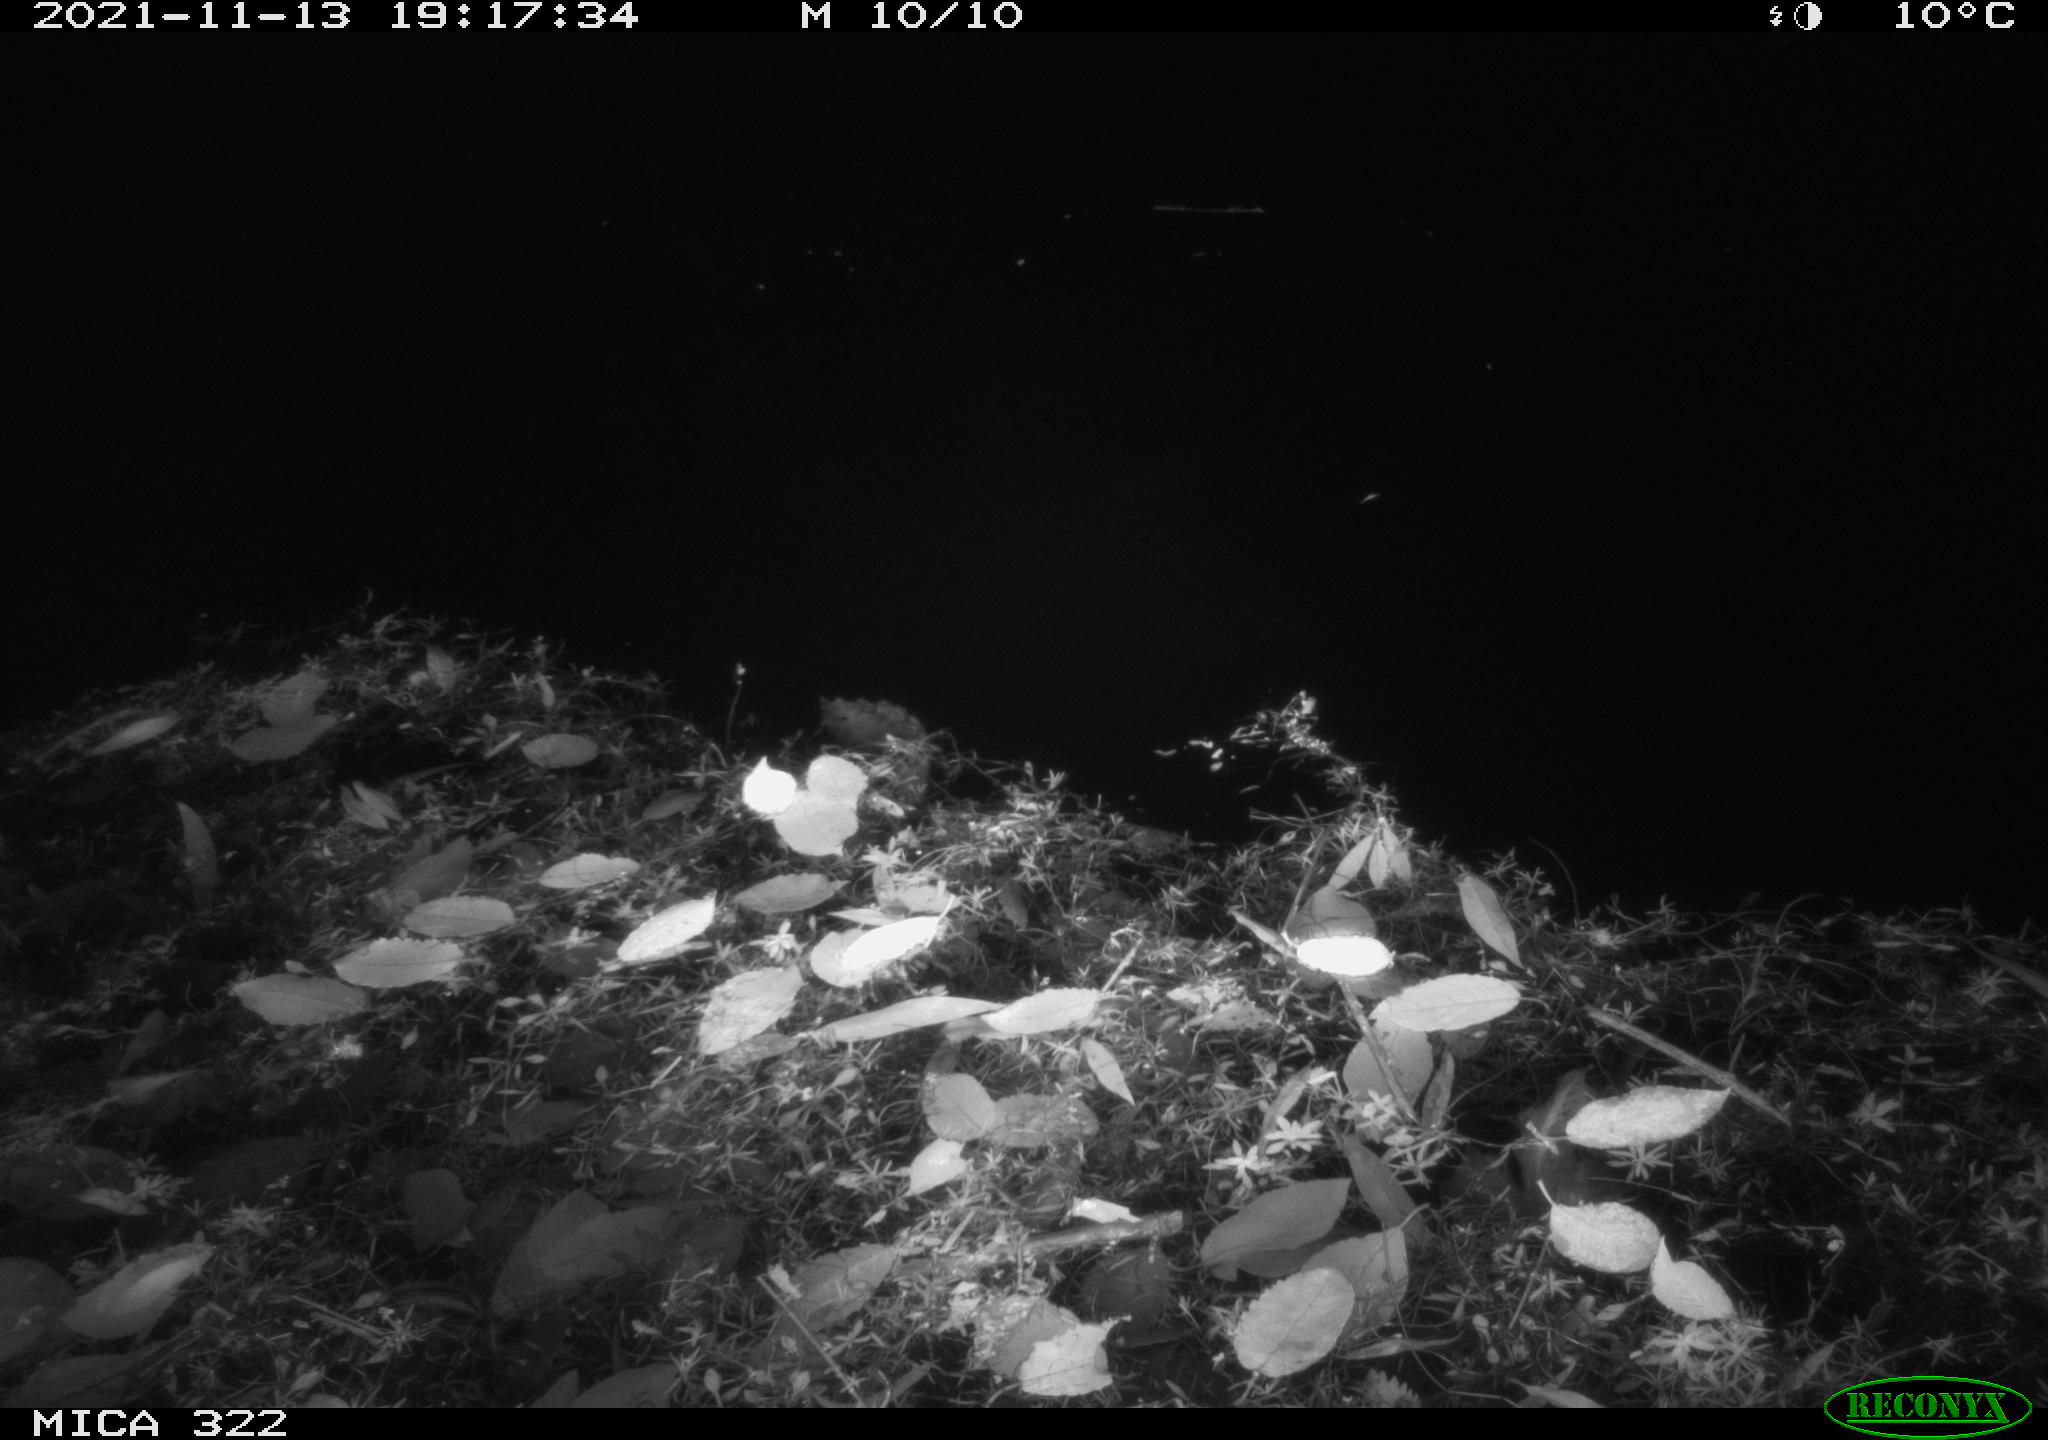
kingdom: Animalia
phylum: Chordata
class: Mammalia
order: Rodentia
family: Muridae
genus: Rattus
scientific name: Rattus norvegicus
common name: Brown rat
